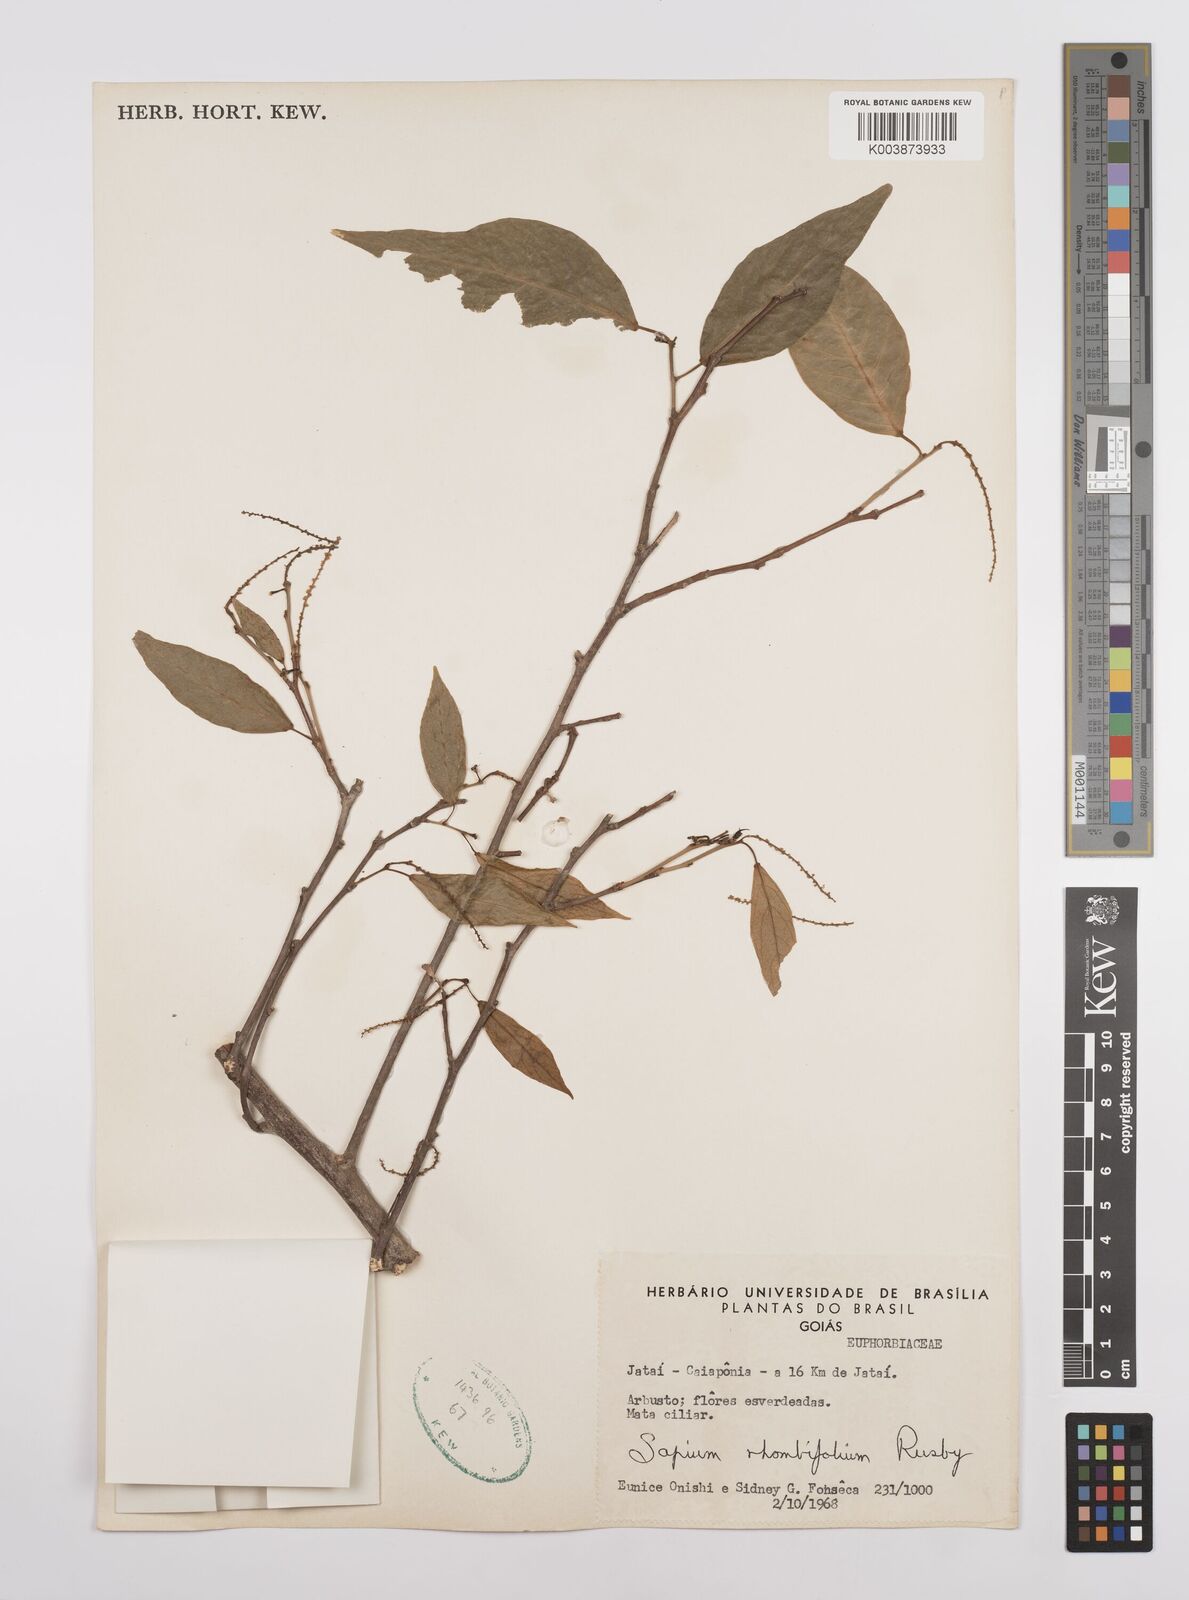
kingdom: Plantae
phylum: Tracheophyta
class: Magnoliopsida
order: Malpighiales
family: Euphorbiaceae
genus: Pleradenophora
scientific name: Pleradenophora membranifolia
